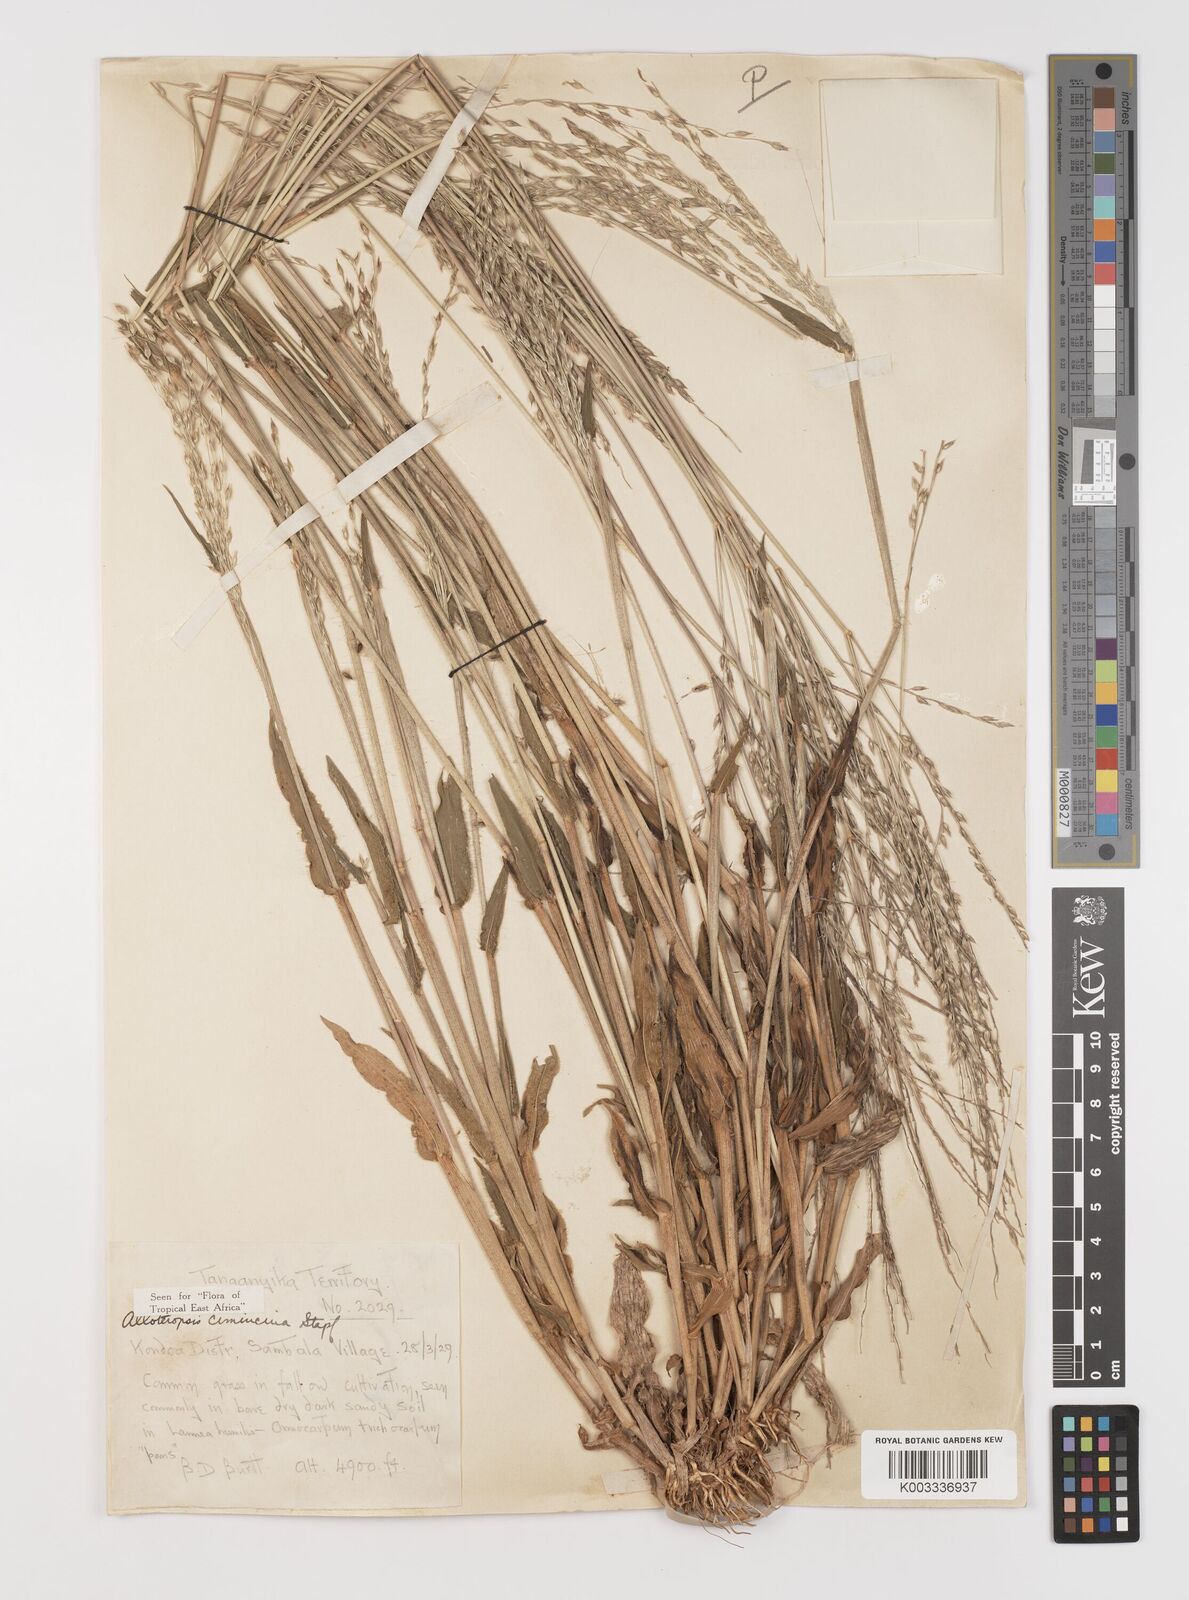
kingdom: Plantae
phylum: Tracheophyta
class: Liliopsida
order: Poales
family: Poaceae
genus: Alloteropsis
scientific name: Alloteropsis cimicina
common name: Summergrass
